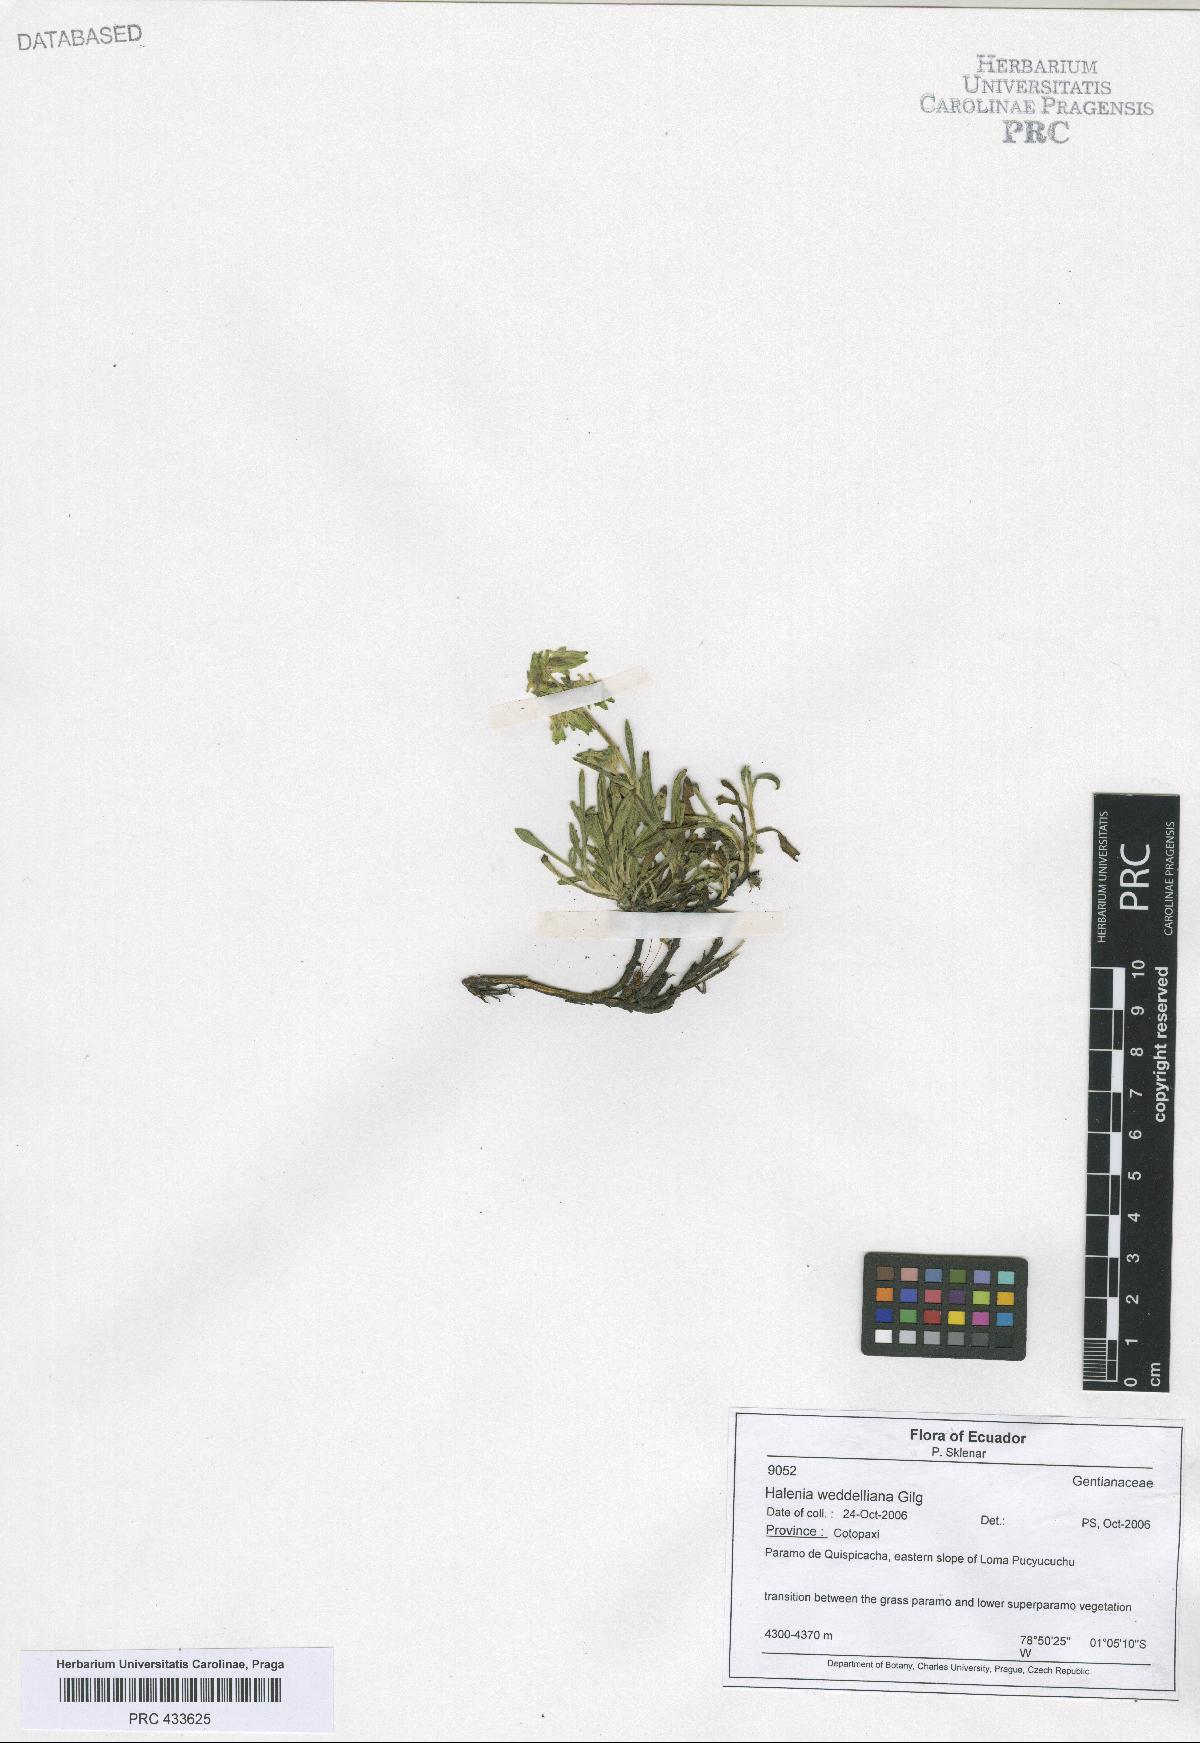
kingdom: Plantae
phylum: Tracheophyta
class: Magnoliopsida
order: Gentianales
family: Gentianaceae
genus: Halenia
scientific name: Halenia weddelliana
